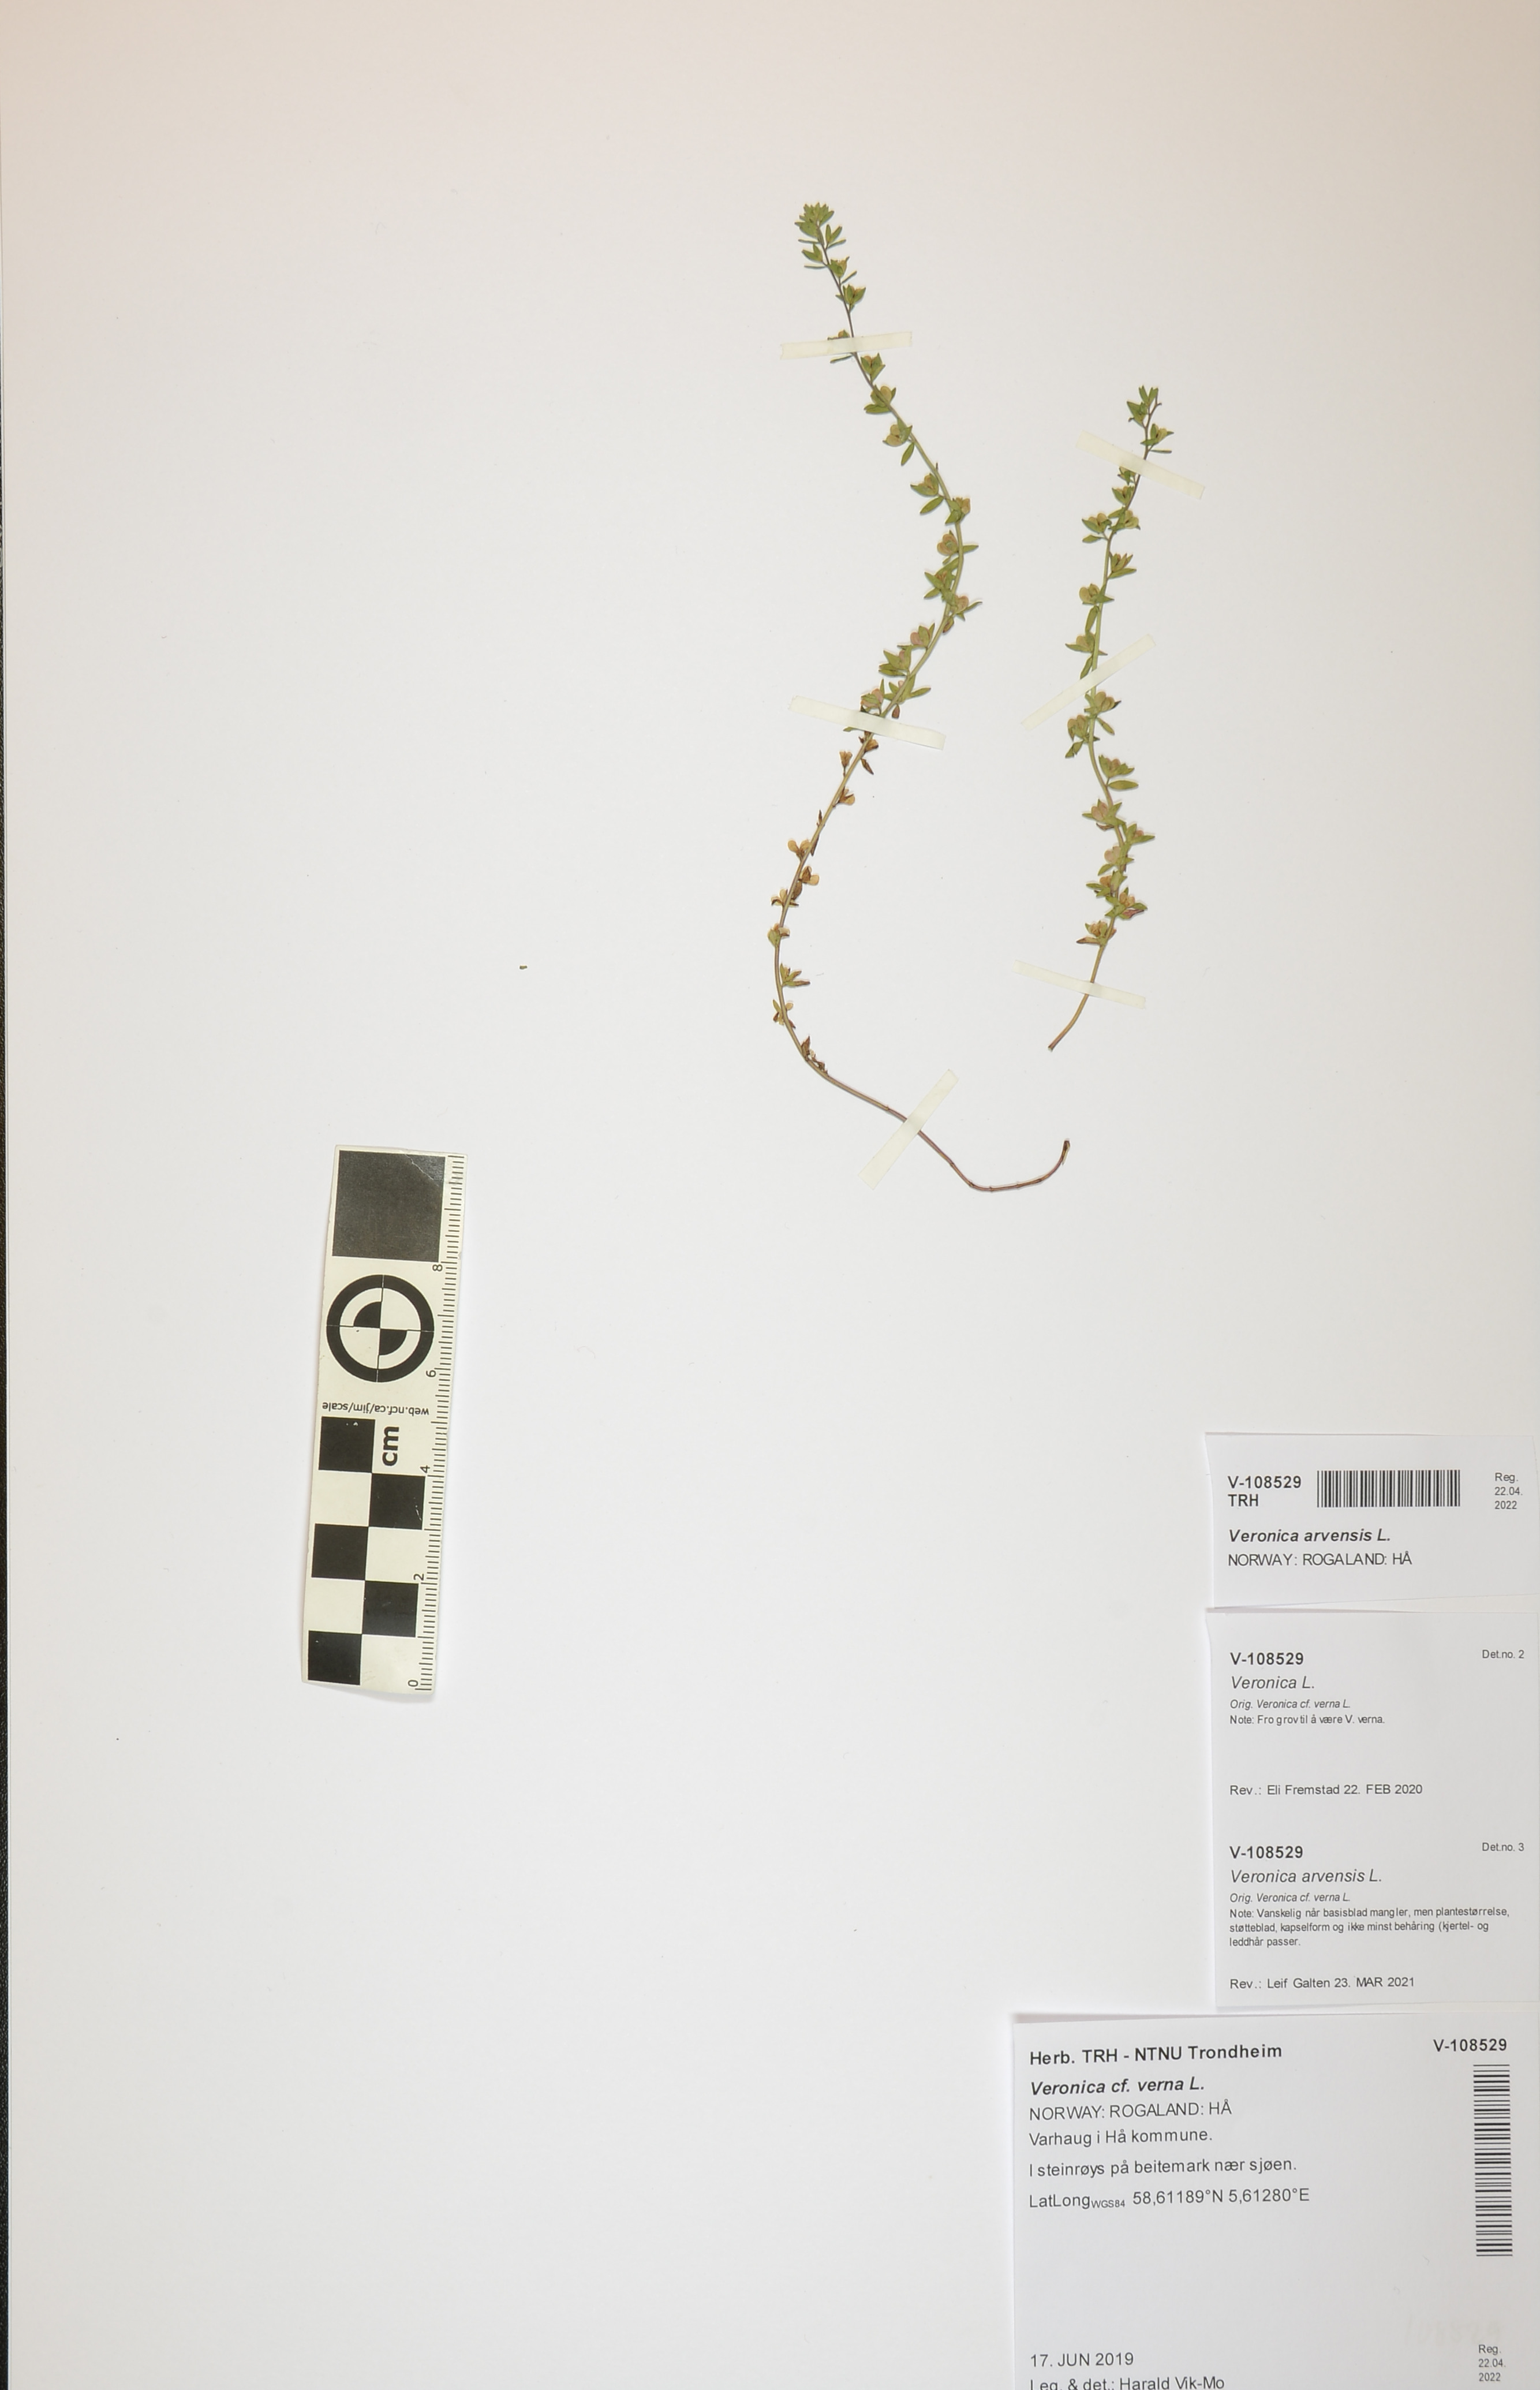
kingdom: Plantae
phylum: Tracheophyta
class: Magnoliopsida
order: Lamiales
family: Plantaginaceae
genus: Veronica
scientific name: Veronica arvensis
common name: Corn speedwell
